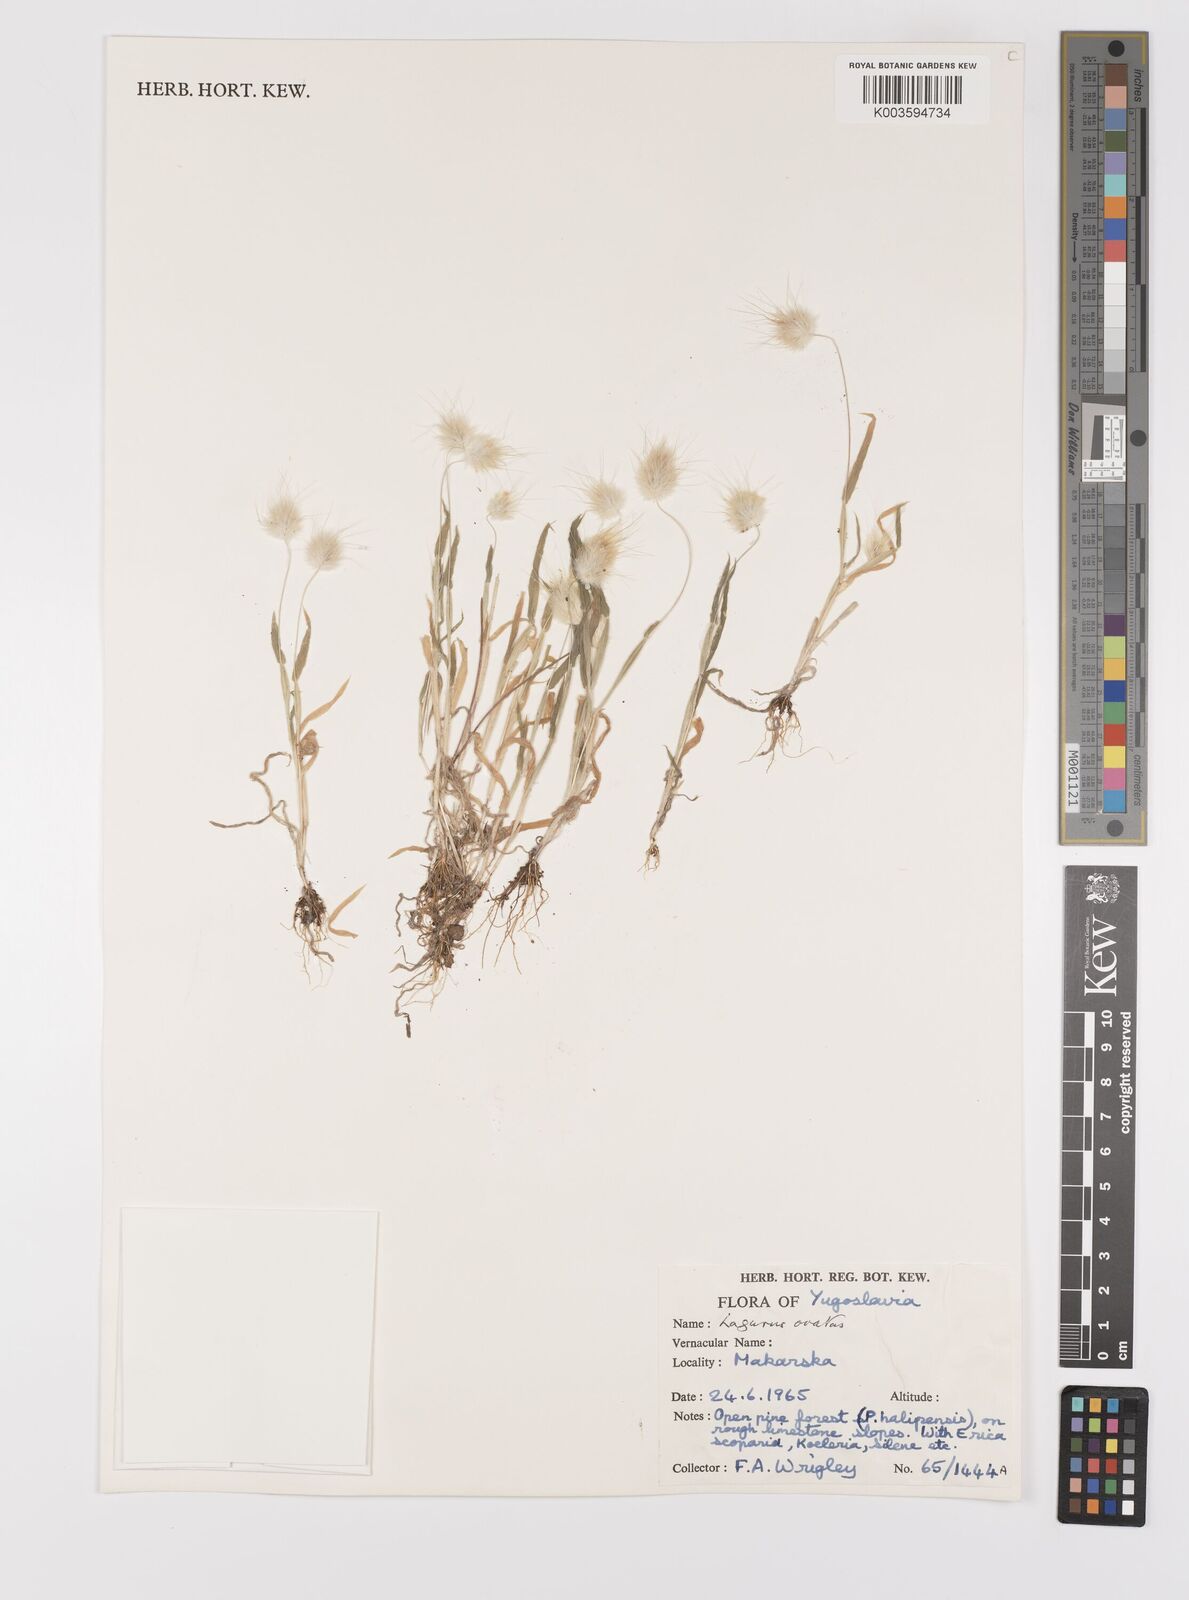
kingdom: Plantae
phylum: Tracheophyta
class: Liliopsida
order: Poales
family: Poaceae
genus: Lagurus
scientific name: Lagurus ovatus
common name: Hare's-tail
